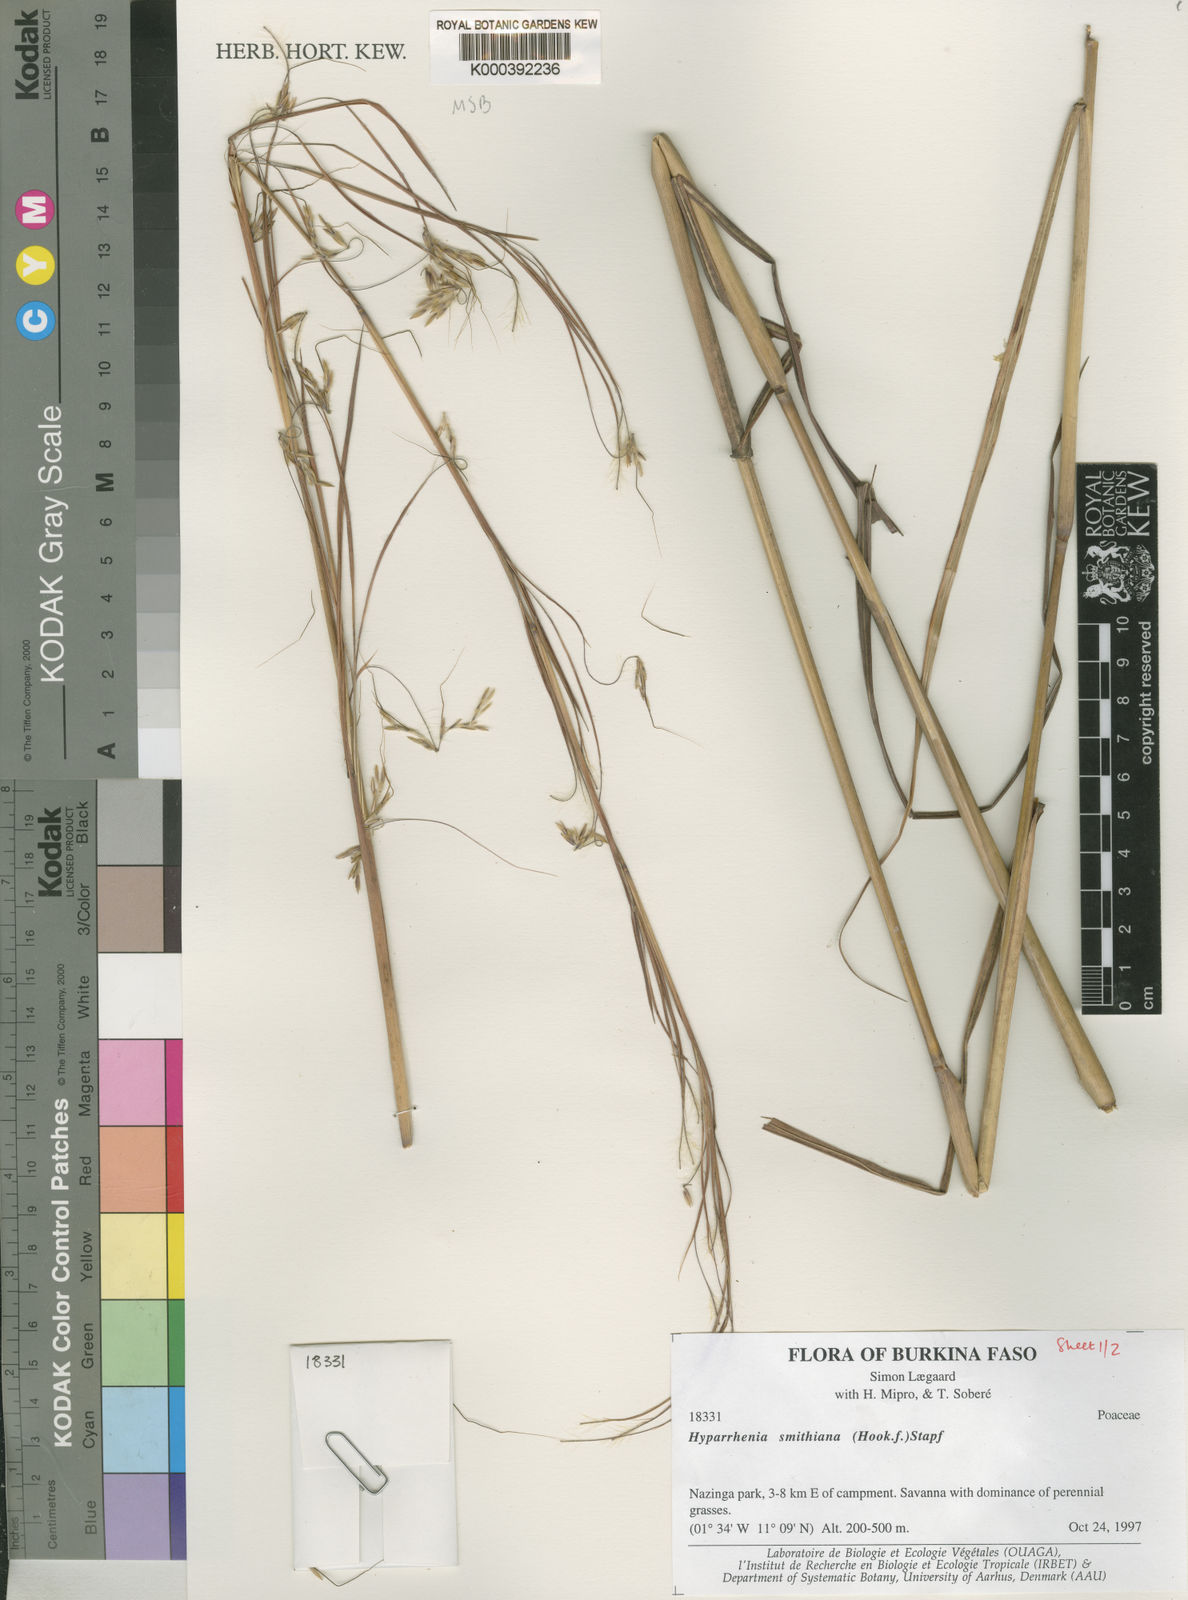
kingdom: Plantae
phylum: Tracheophyta
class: Liliopsida
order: Poales
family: Poaceae
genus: Hyparrhenia
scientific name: Hyparrhenia smithiana
